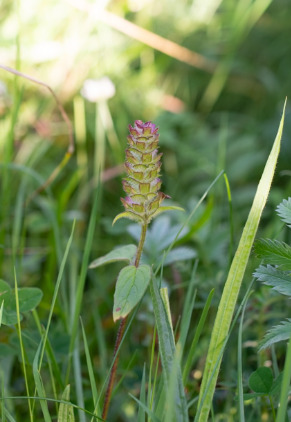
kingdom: Plantae
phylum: Tracheophyta
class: Magnoliopsida
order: Lamiales
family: Lamiaceae
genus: Prunella
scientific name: Prunella vulgaris
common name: Almindelig brunelle
